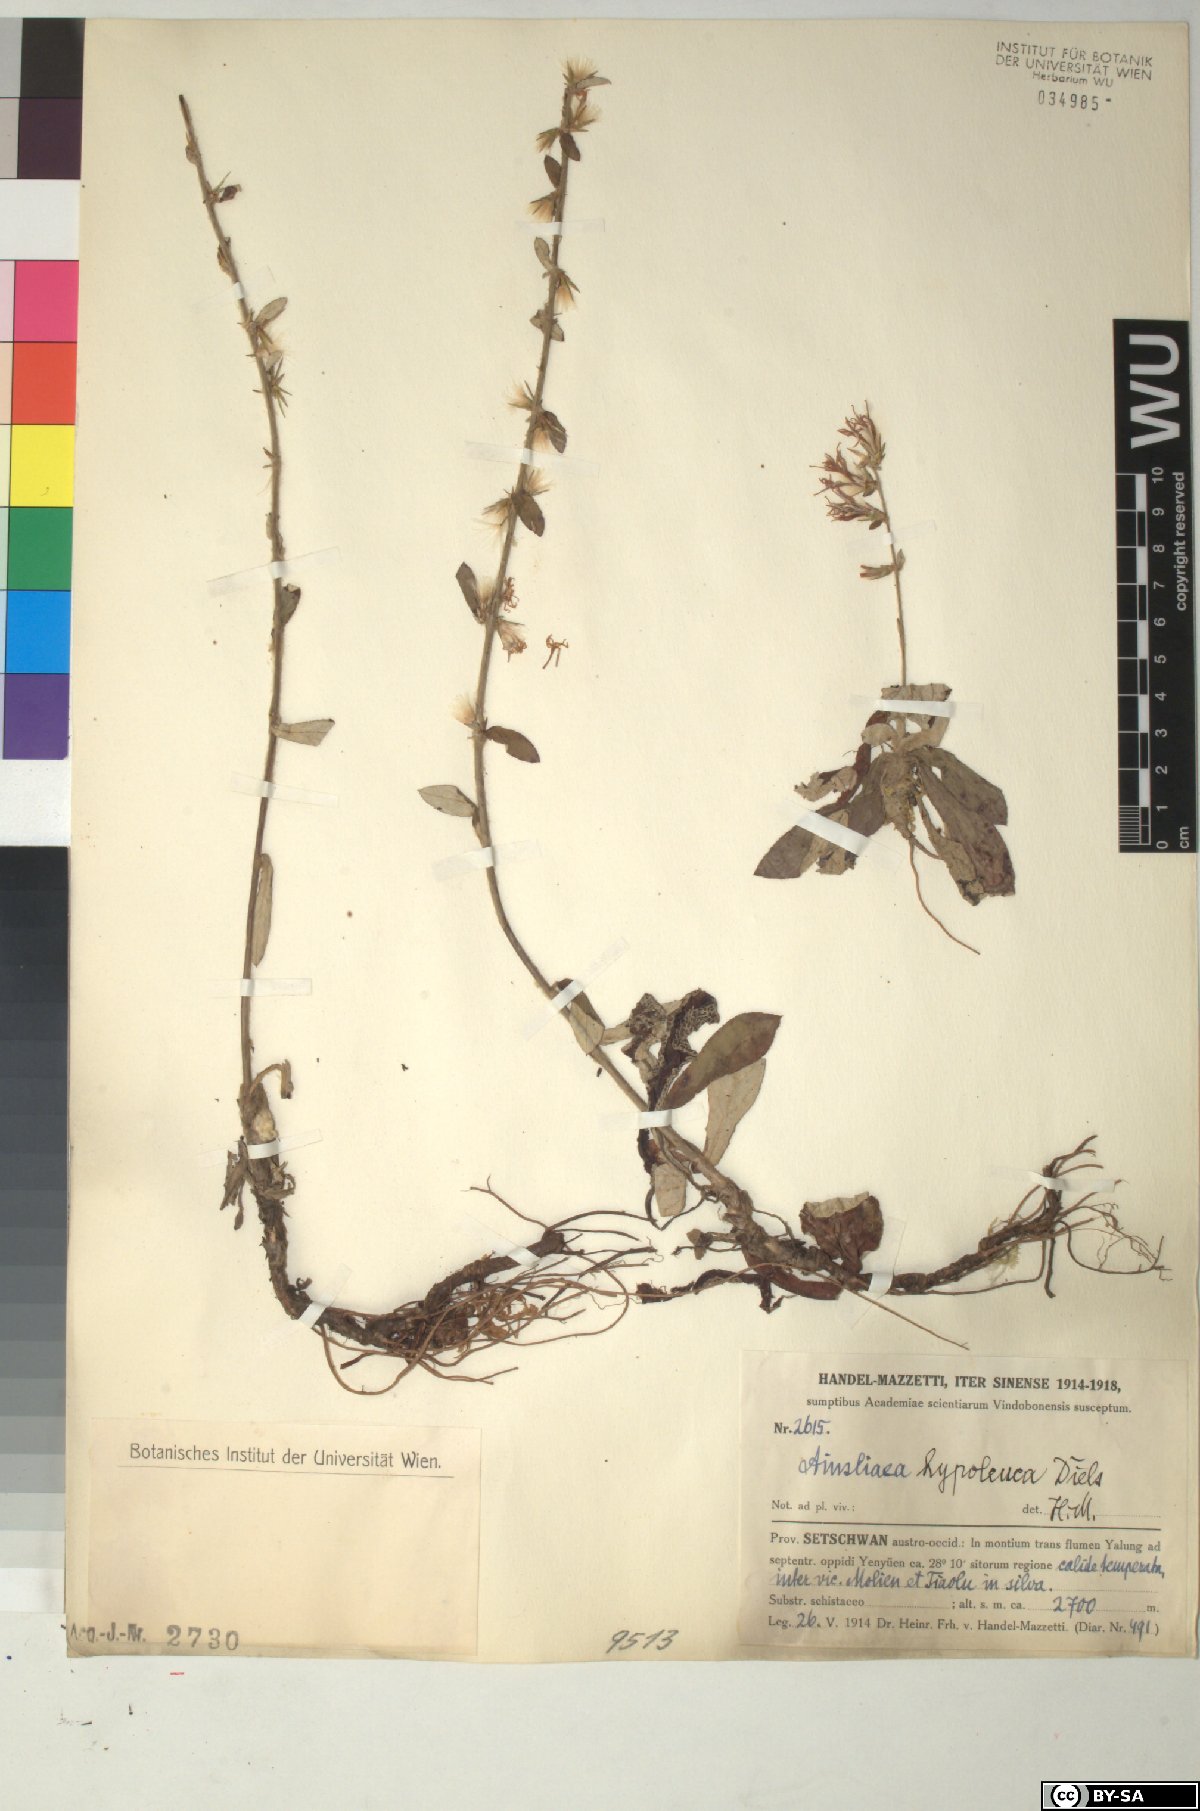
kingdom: Plantae
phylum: Tracheophyta
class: Magnoliopsida
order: Asterales
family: Asteraceae
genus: Ainsliaea
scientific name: Ainsliaea latifolia
